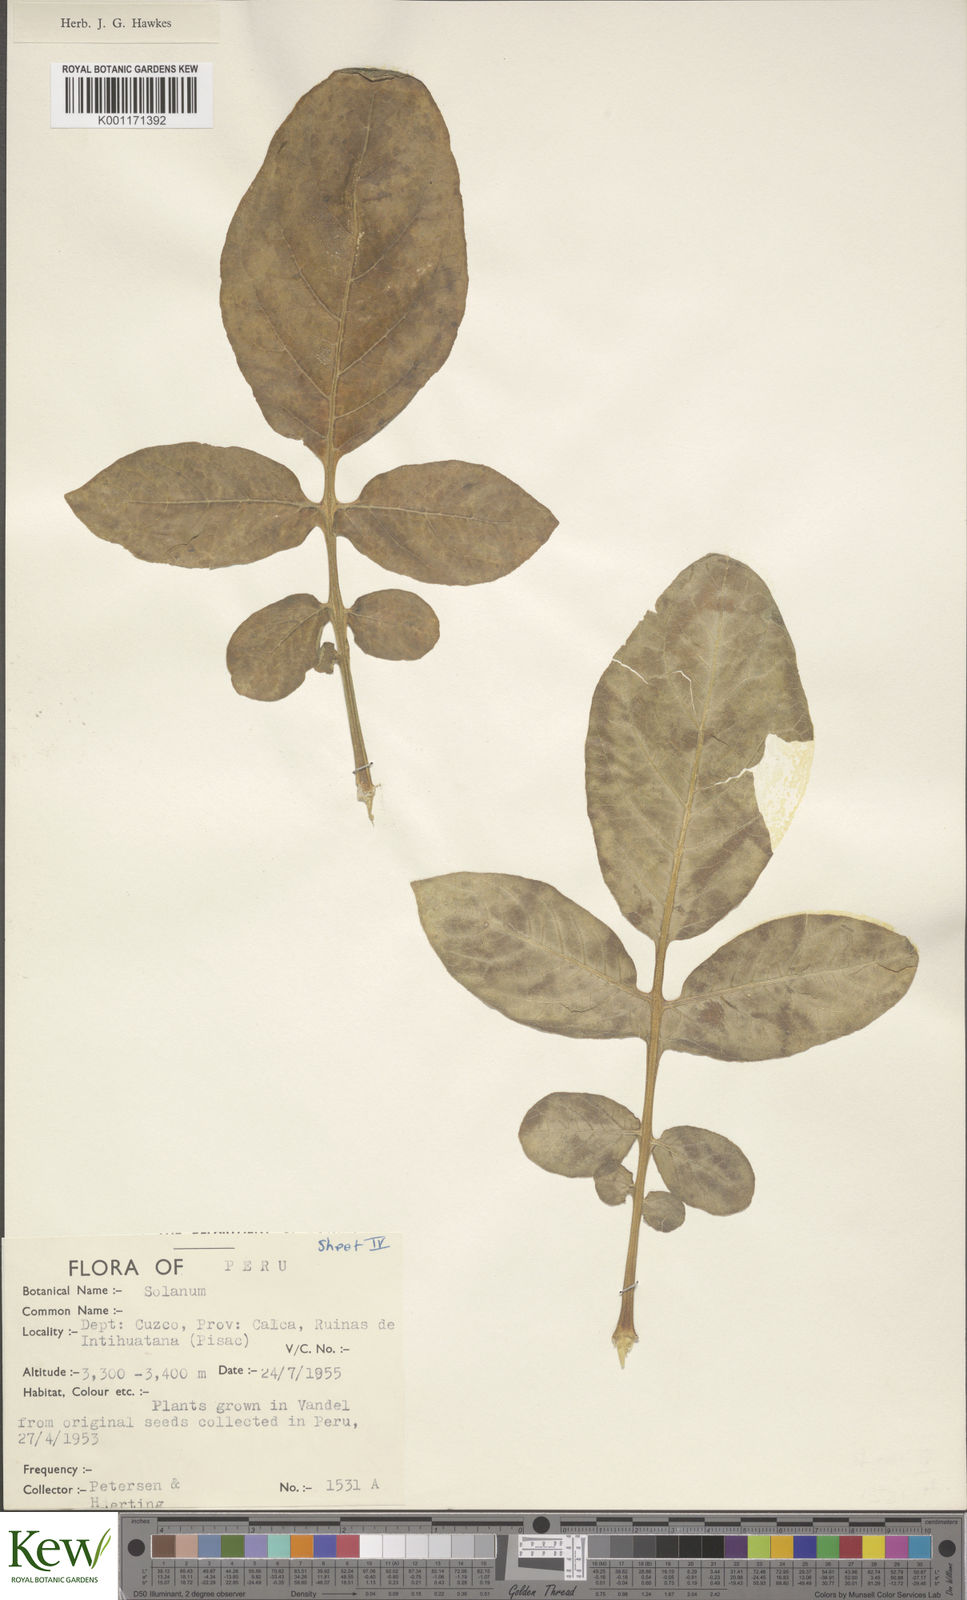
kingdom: Plantae
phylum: Tracheophyta
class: Magnoliopsida
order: Solanales
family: Solanaceae
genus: Solanum
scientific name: Solanum
